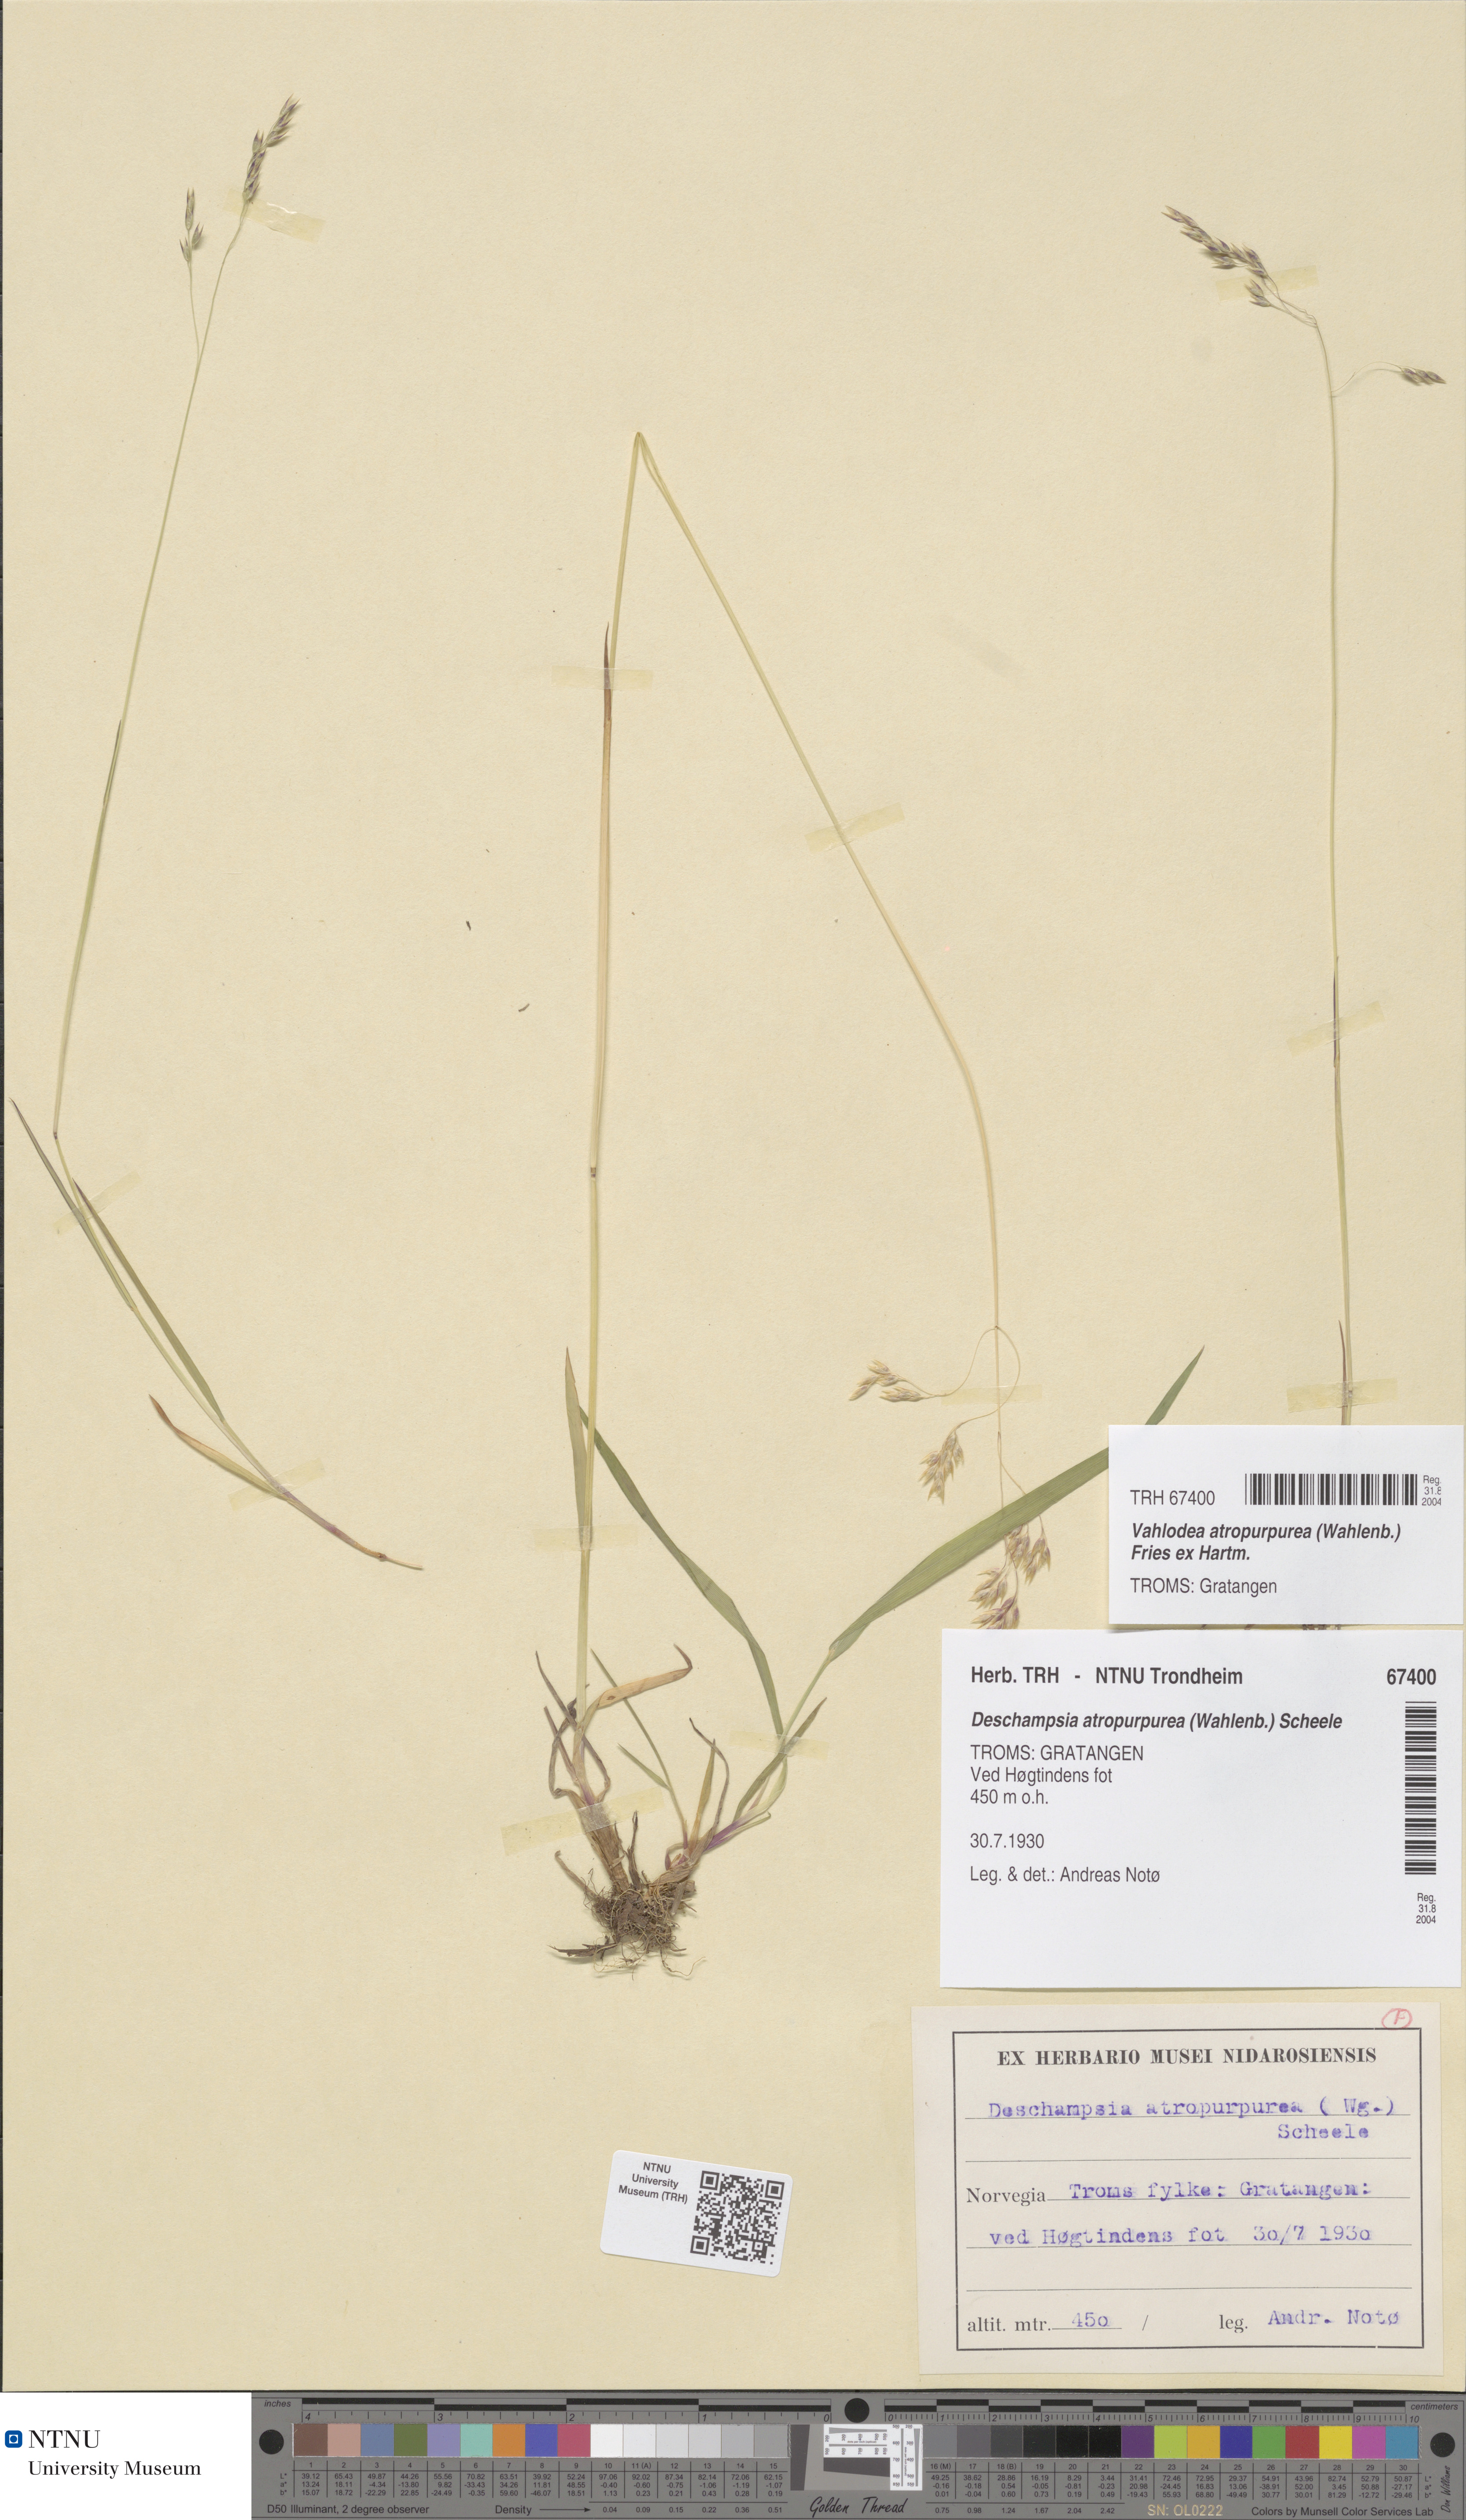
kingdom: Plantae
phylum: Tracheophyta
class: Liliopsida
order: Poales
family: Poaceae
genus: Vahlodea
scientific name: Vahlodea atropurpurea
